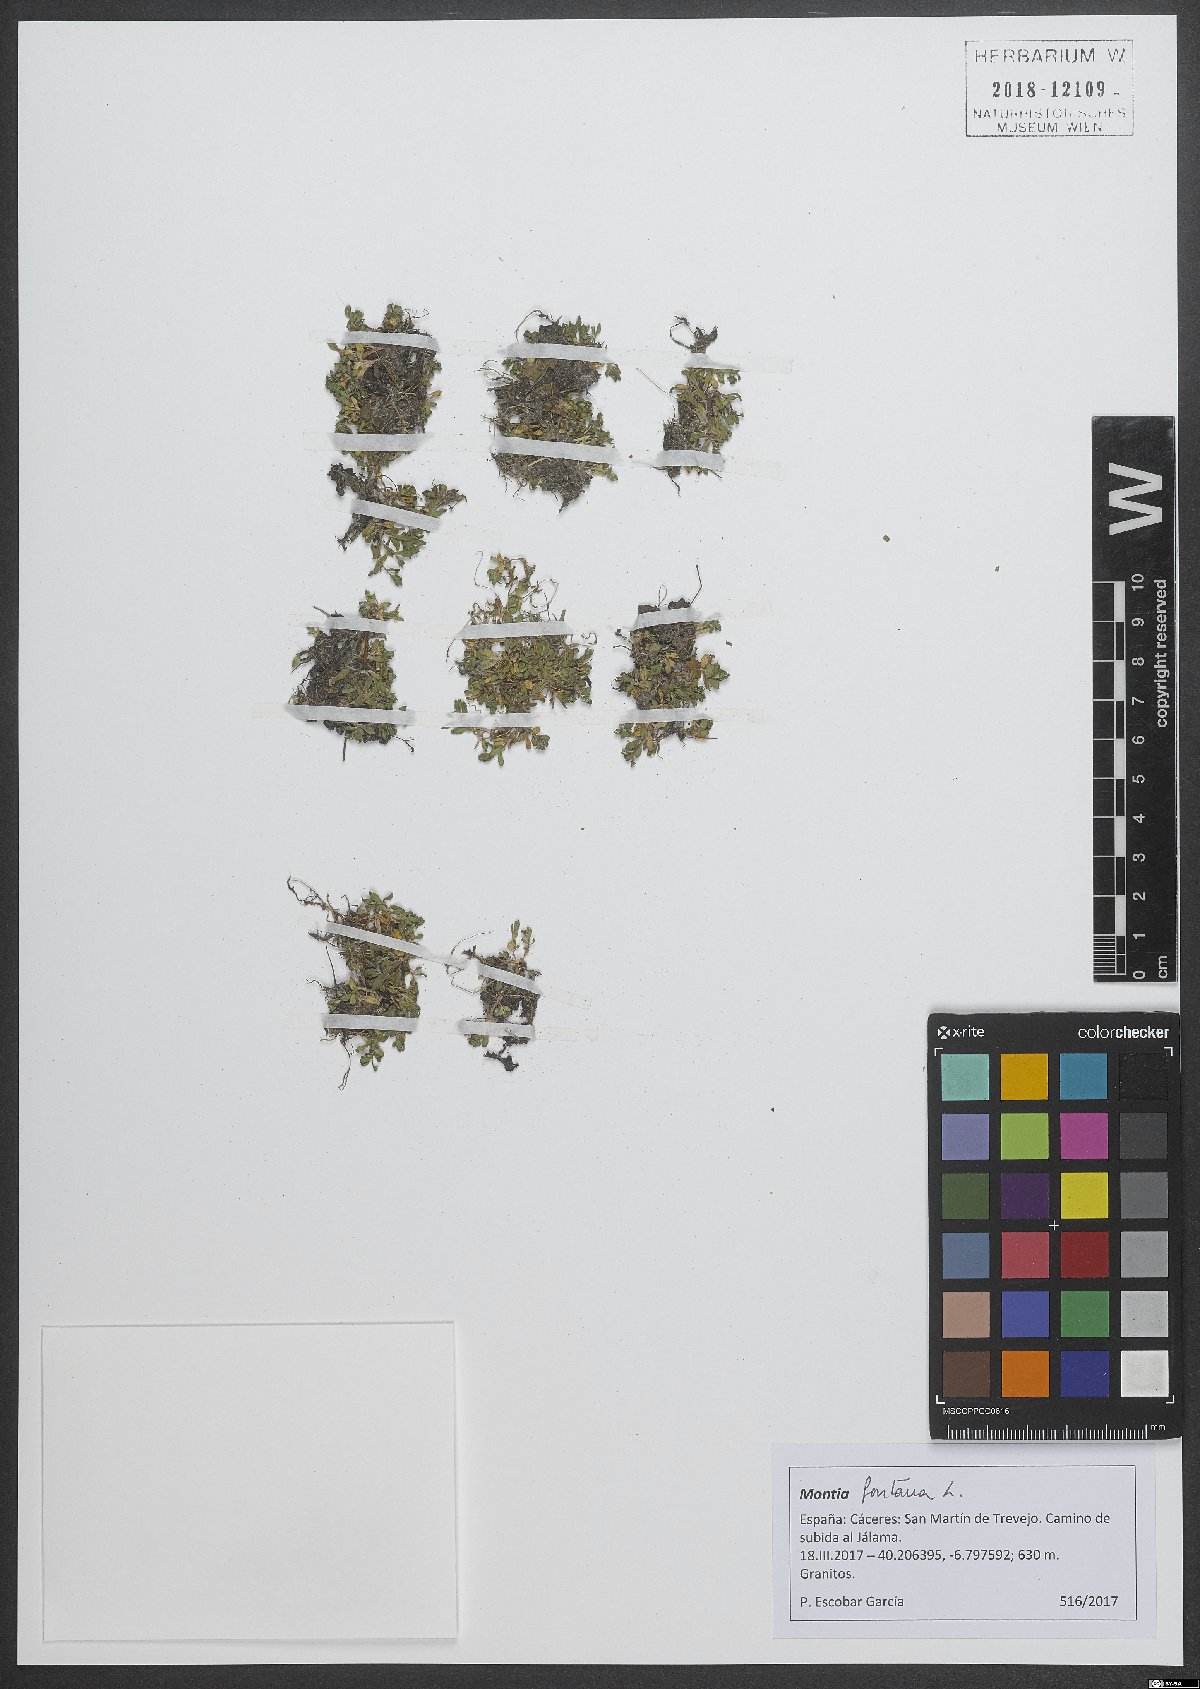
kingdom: Plantae
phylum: Tracheophyta
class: Magnoliopsida
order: Caryophyllales
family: Montiaceae
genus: Montia
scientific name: Montia fontana
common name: Blinks
